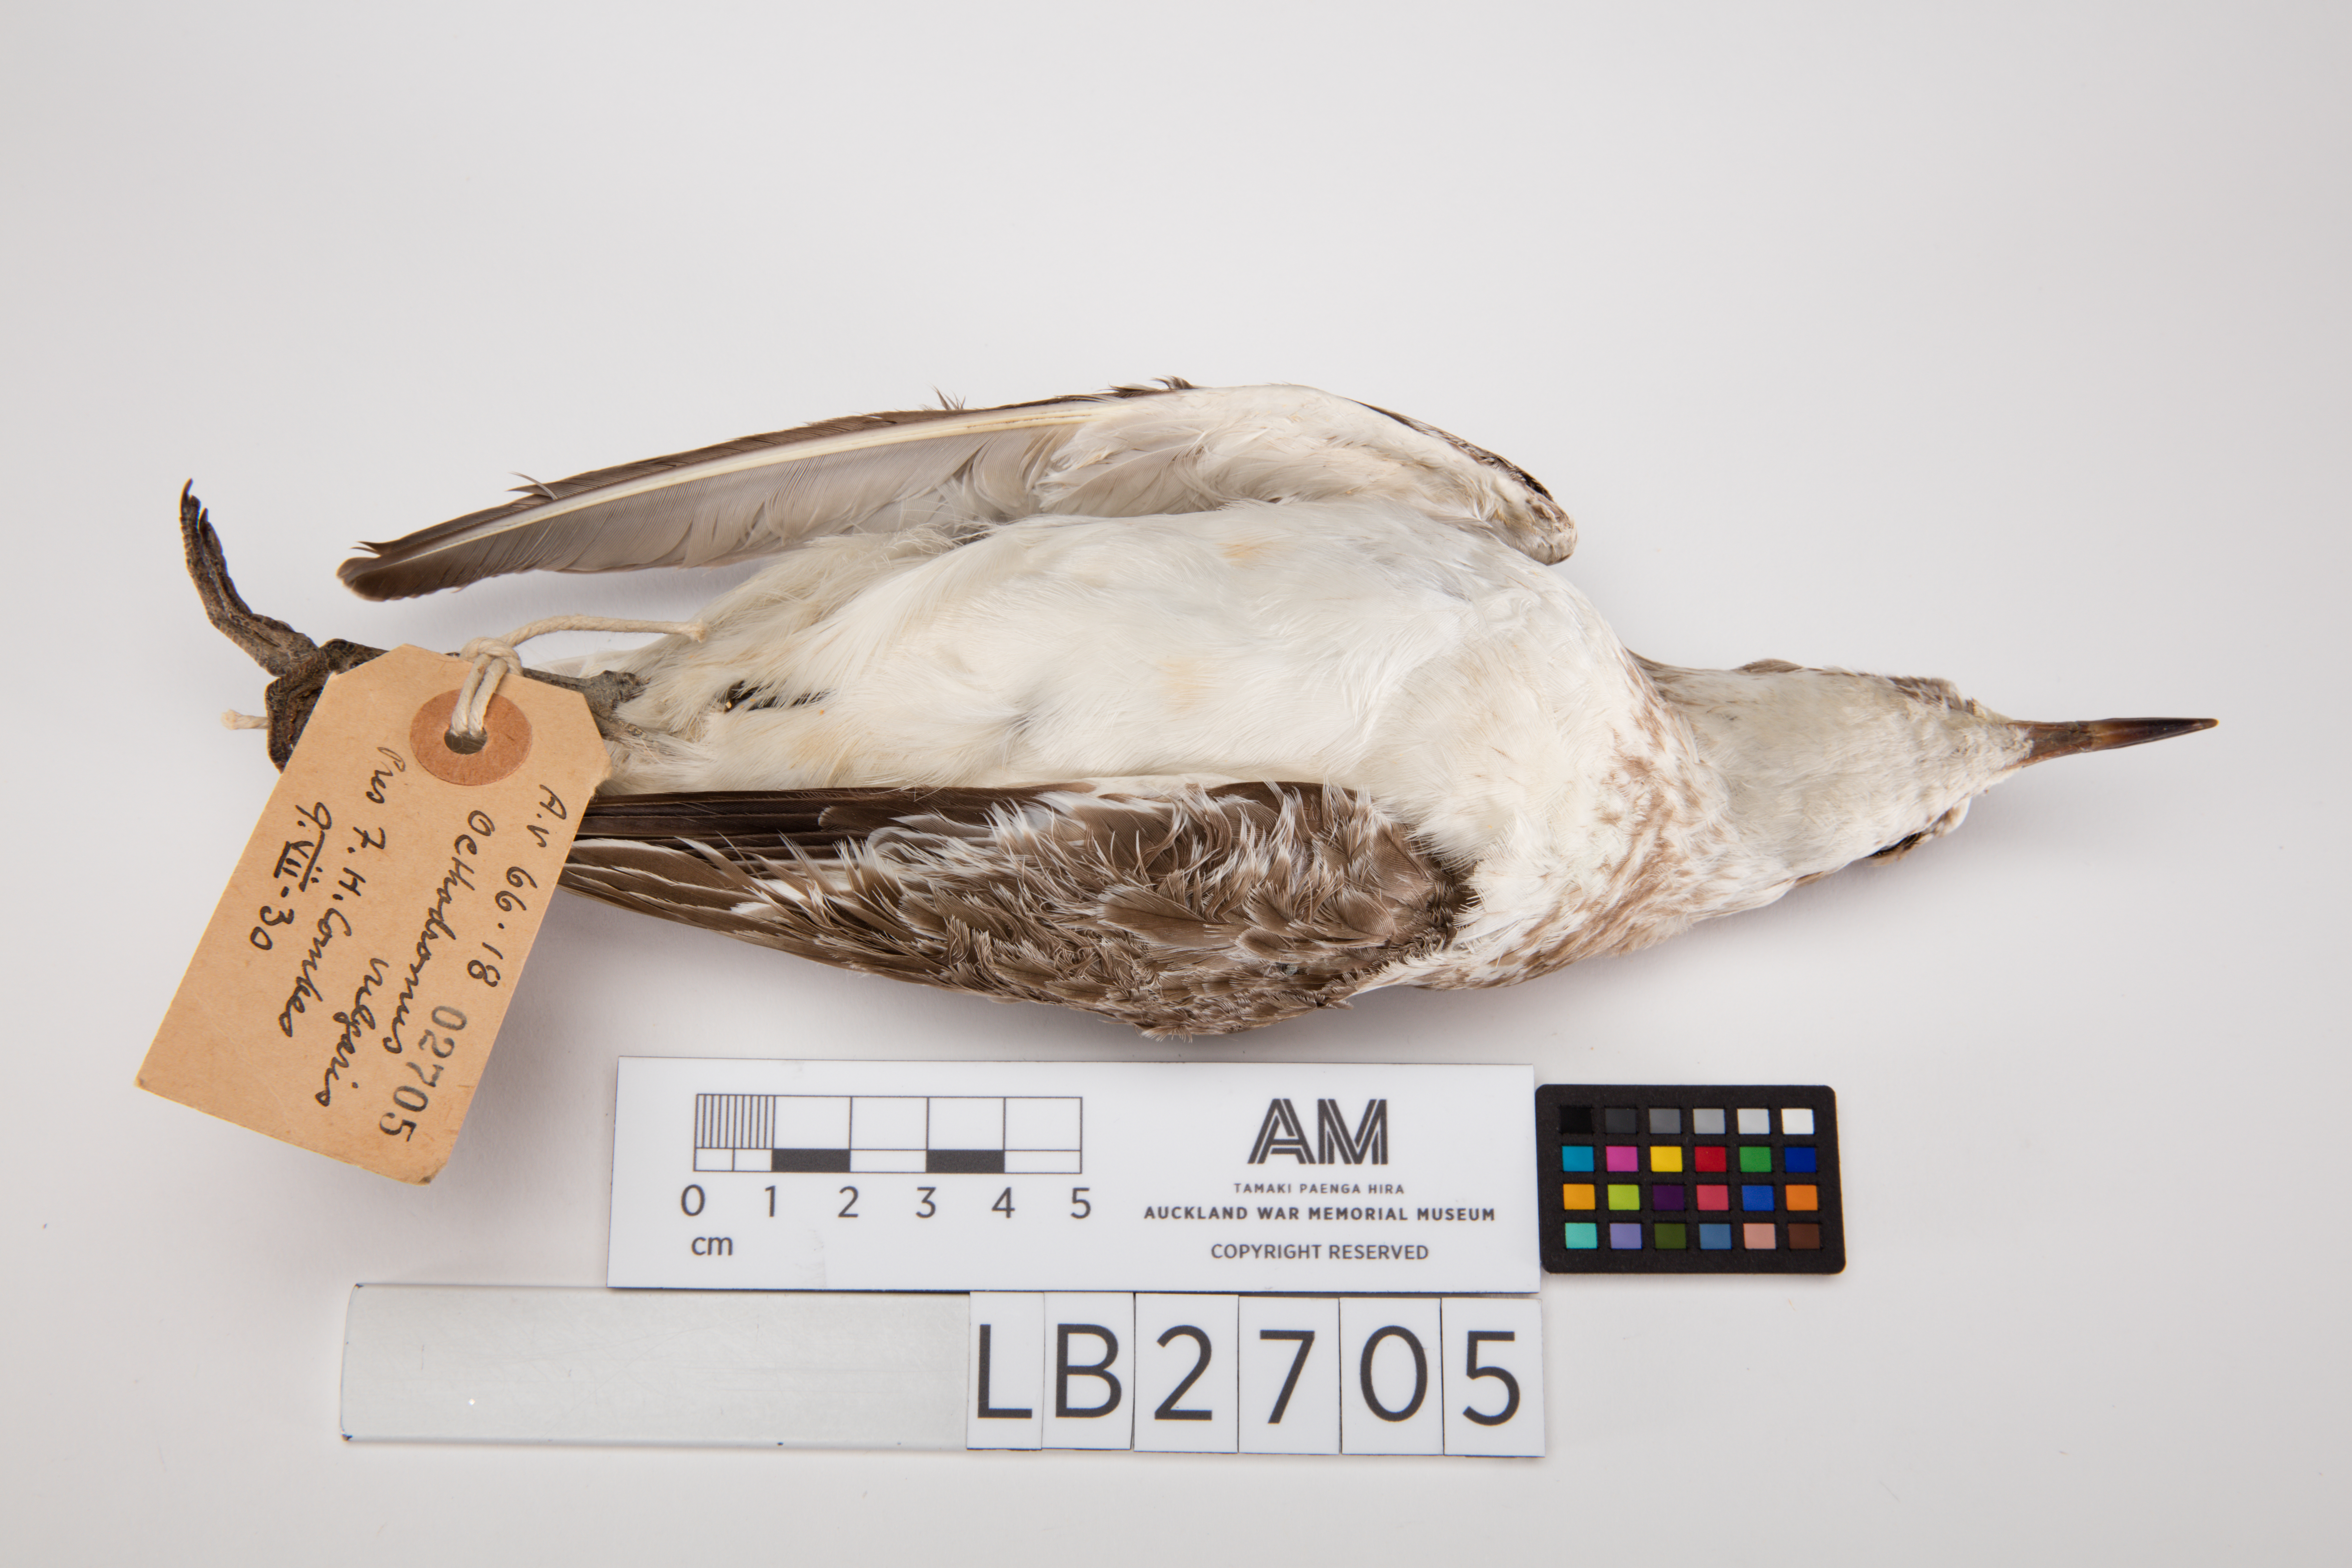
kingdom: Animalia
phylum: Chordata
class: Aves
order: Charadriiformes
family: Charadriidae
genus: Charadrius
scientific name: Charadrius obscurus
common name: New zealand plover
